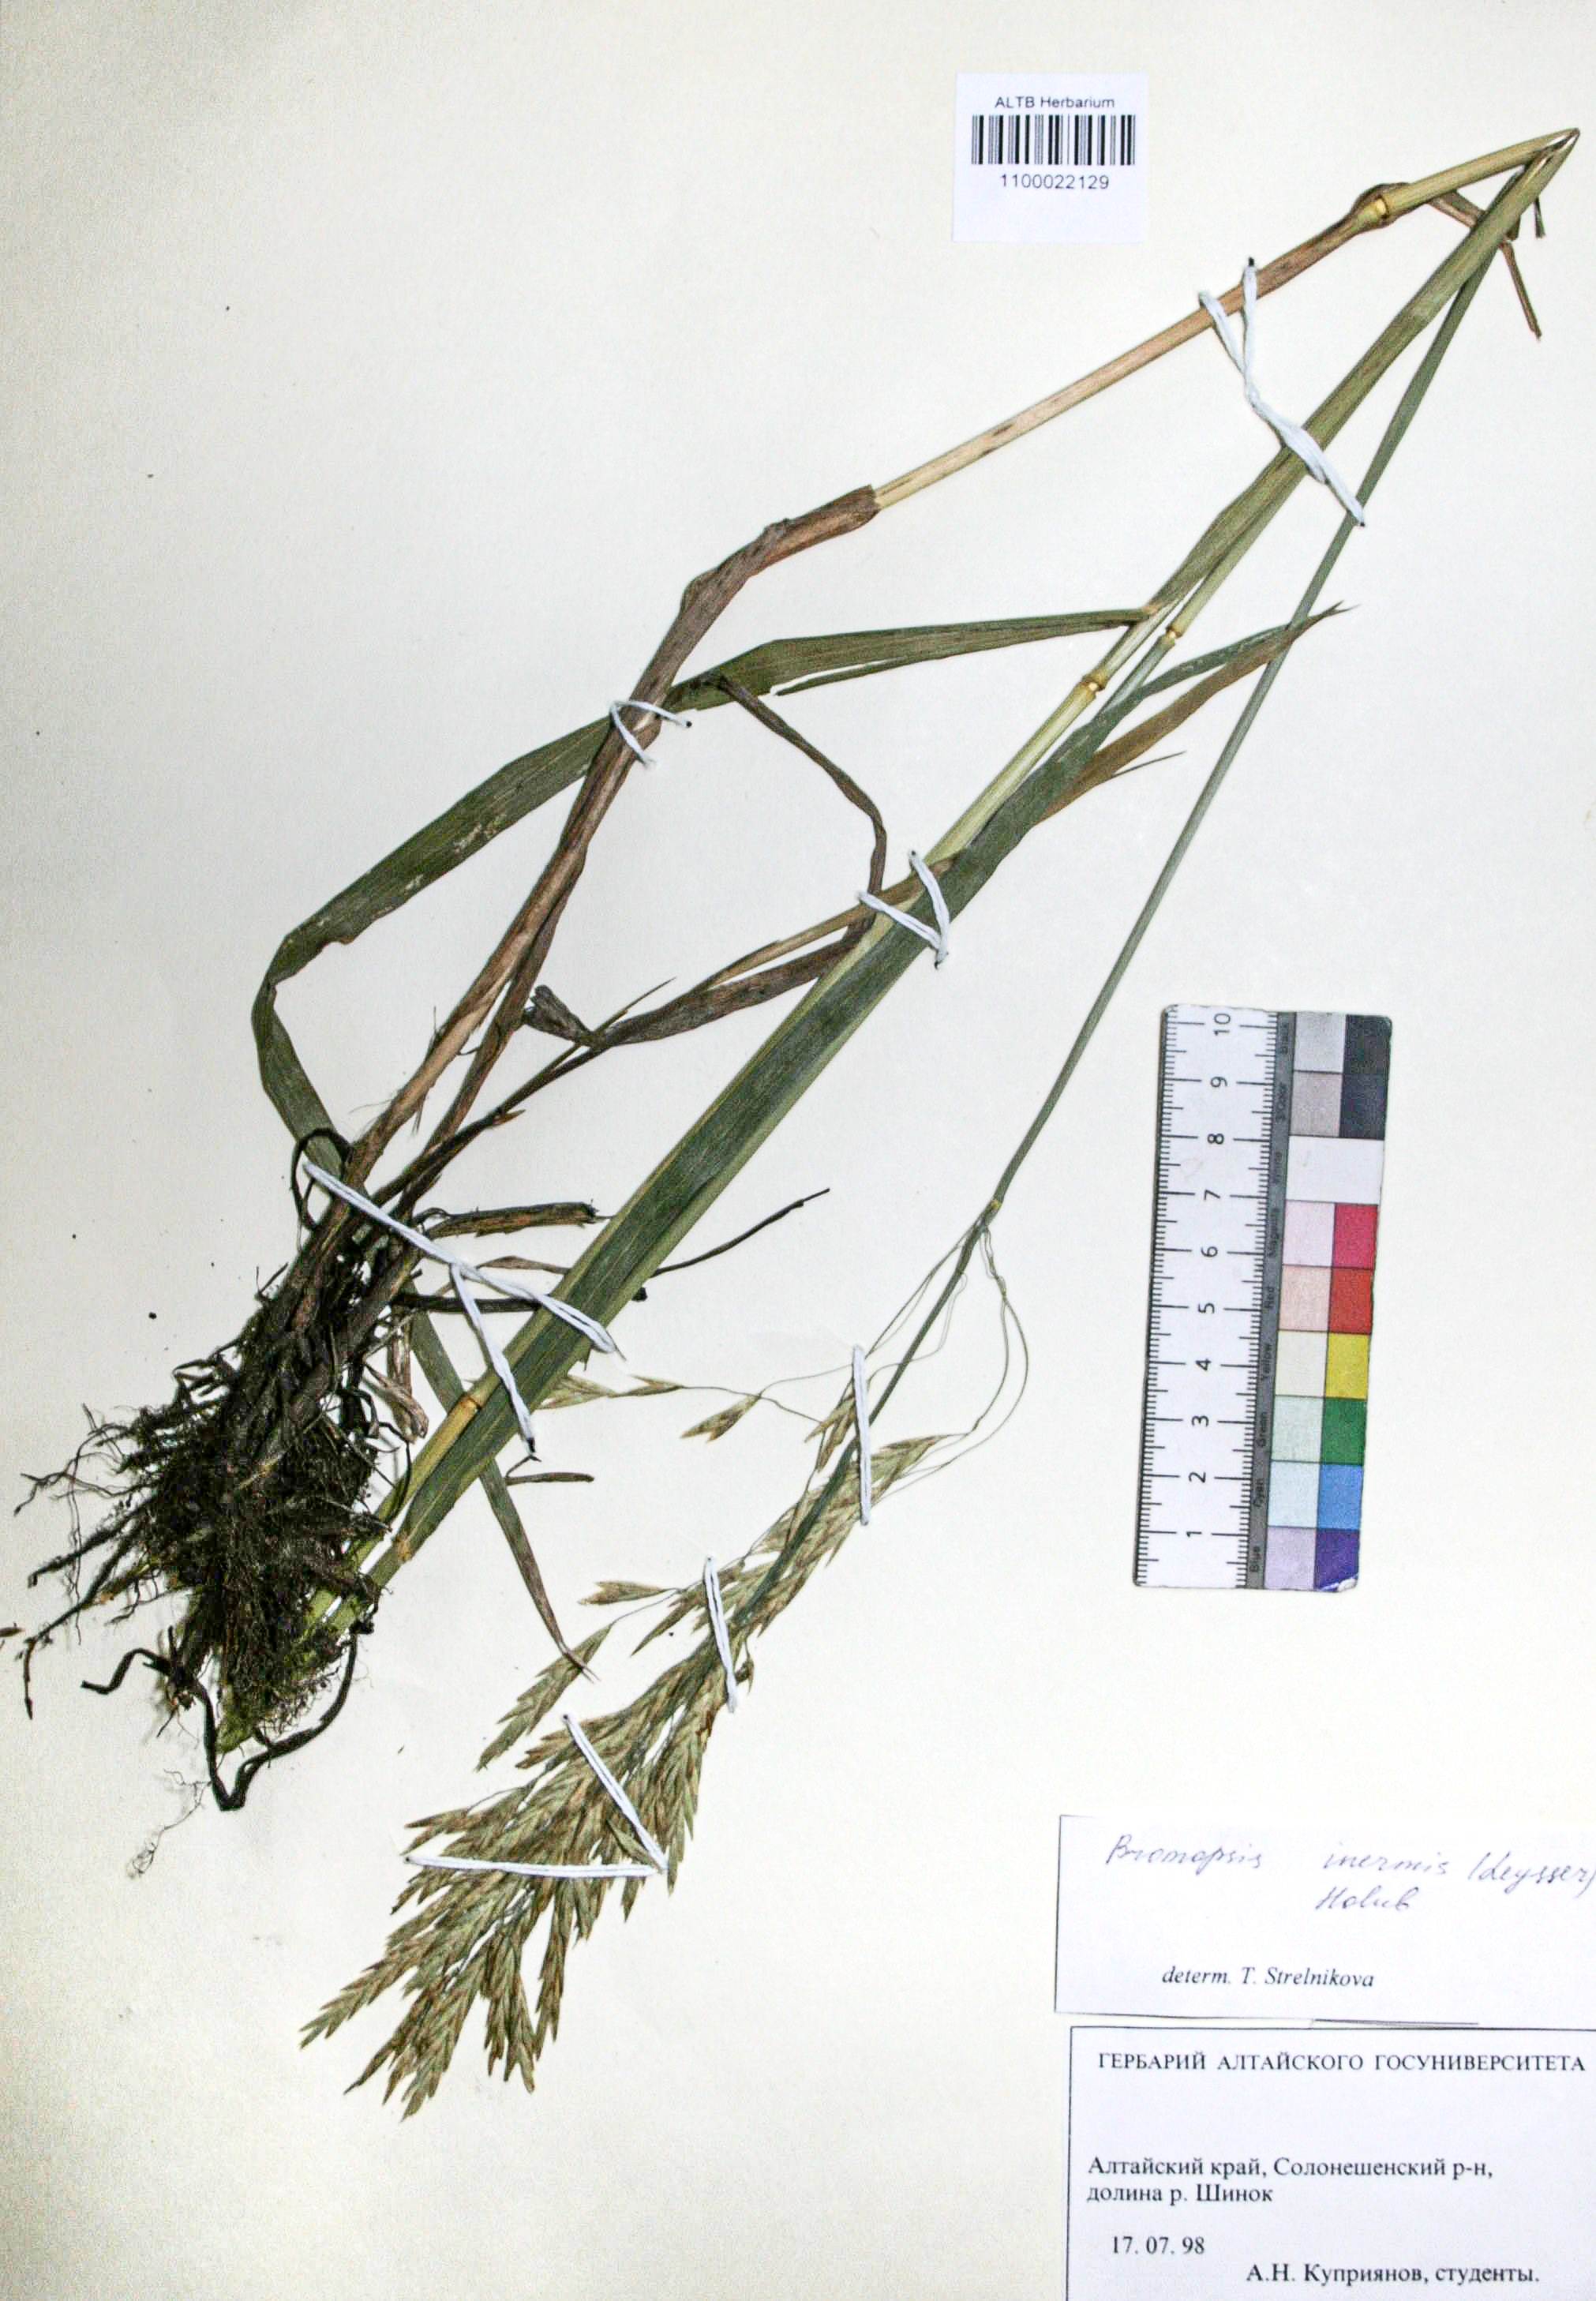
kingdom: Plantae
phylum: Tracheophyta
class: Liliopsida
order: Poales
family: Poaceae
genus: Bromus
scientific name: Bromus inermis
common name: Smooth brome
